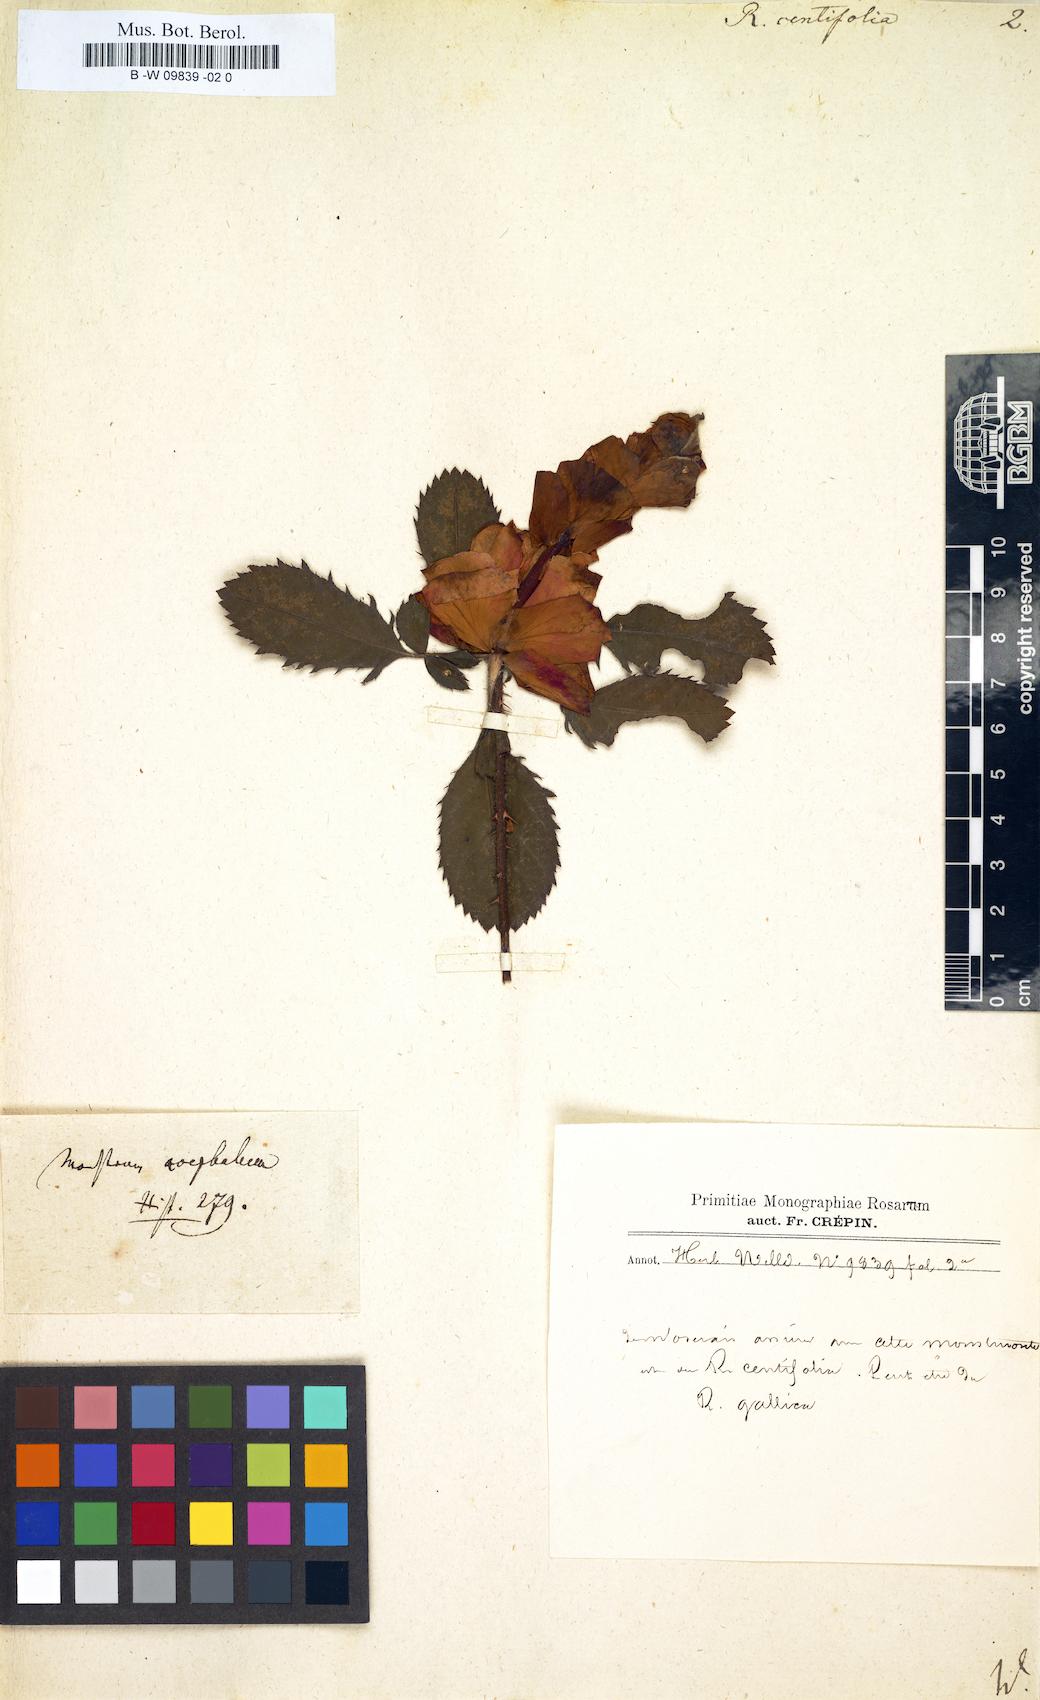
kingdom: Plantae
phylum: Tracheophyta
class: Magnoliopsida
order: Rosales
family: Rosaceae
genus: Rosa
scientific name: Rosa centifolia
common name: Cabbage rose
